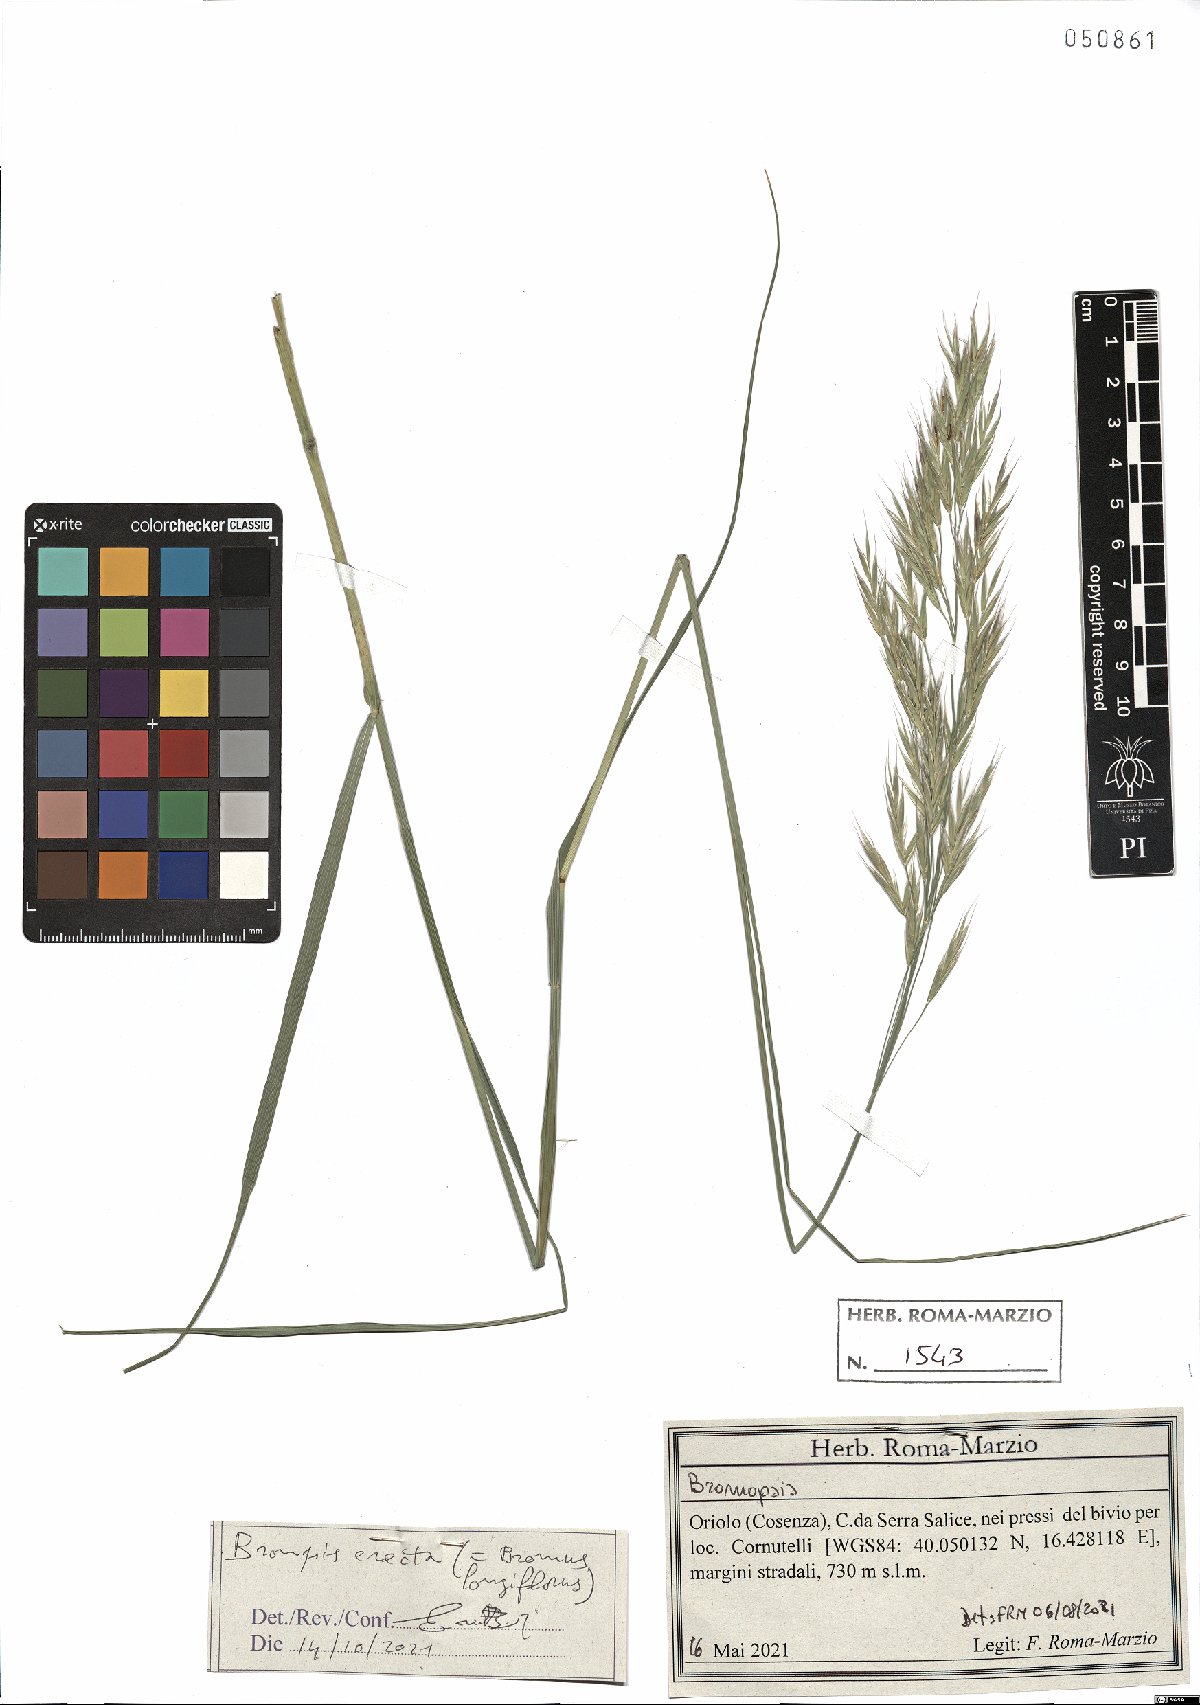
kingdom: Plantae
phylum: Tracheophyta
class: Liliopsida
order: Poales
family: Poaceae
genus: Bromus
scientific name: Bromus erectus
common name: Erect brome
